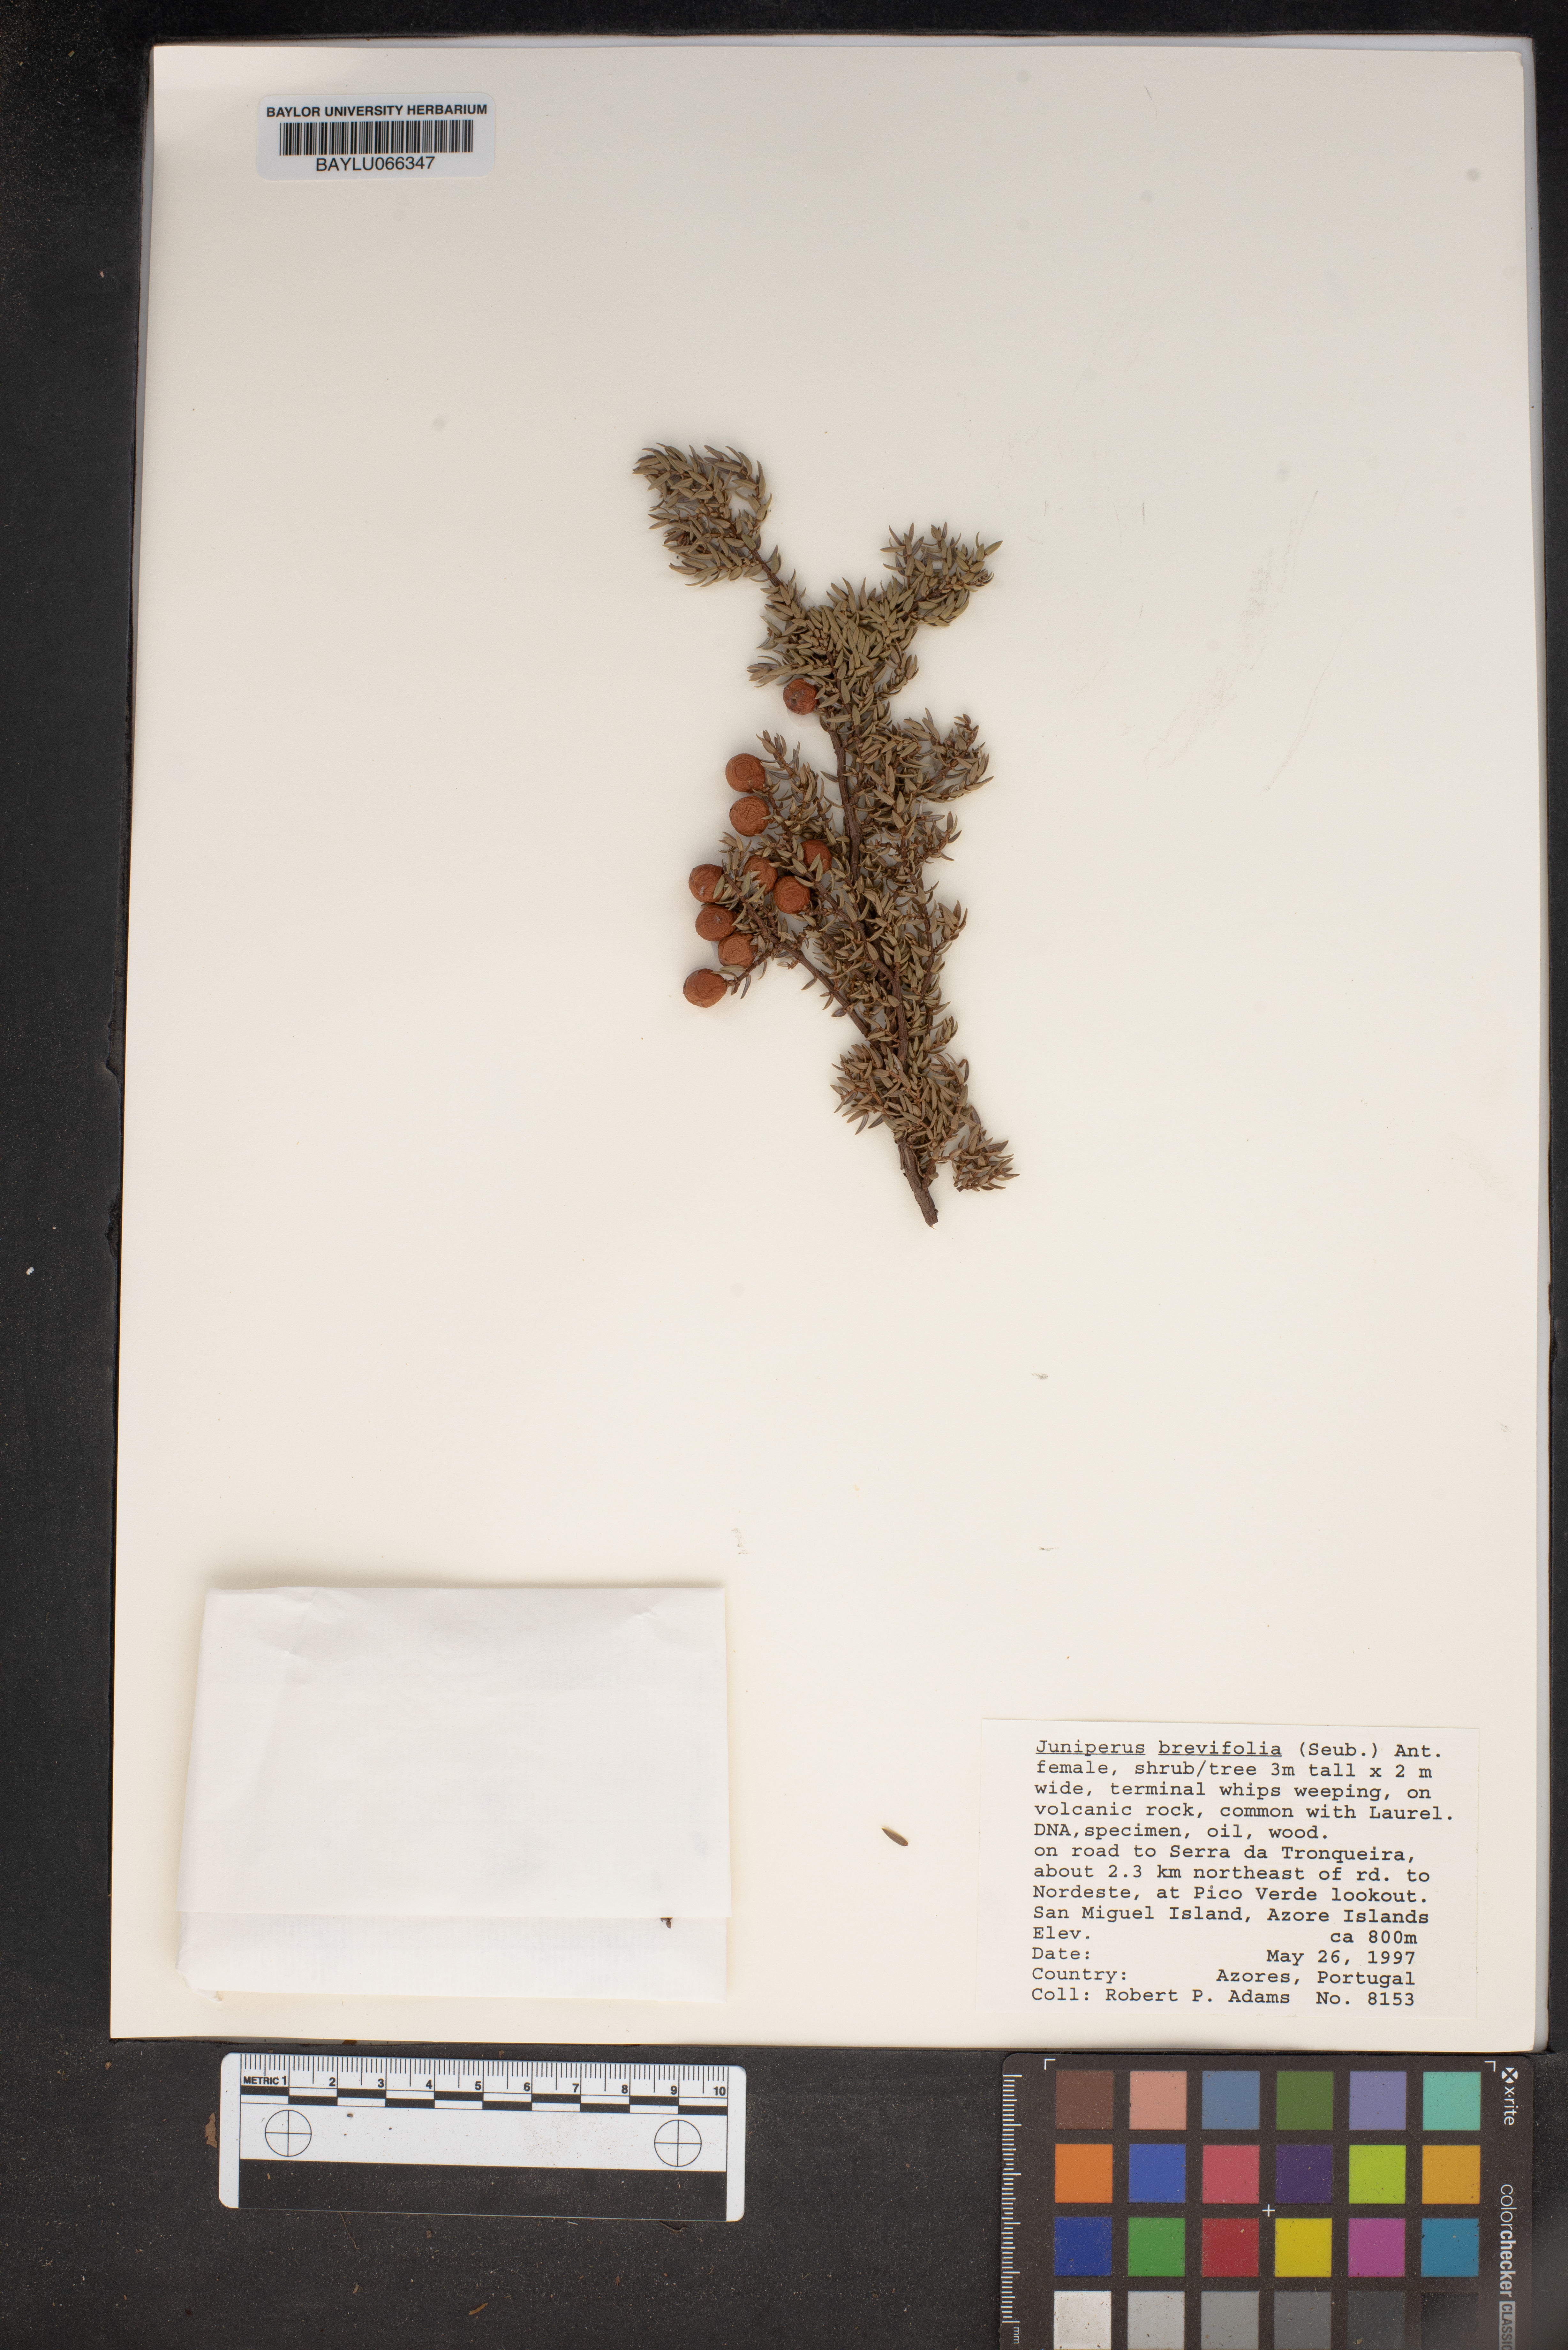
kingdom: Plantae
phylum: Tracheophyta
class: Pinopsida
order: Pinales
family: Cupressaceae
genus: Juniperus
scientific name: Juniperus brevifolia
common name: Azores juniper
